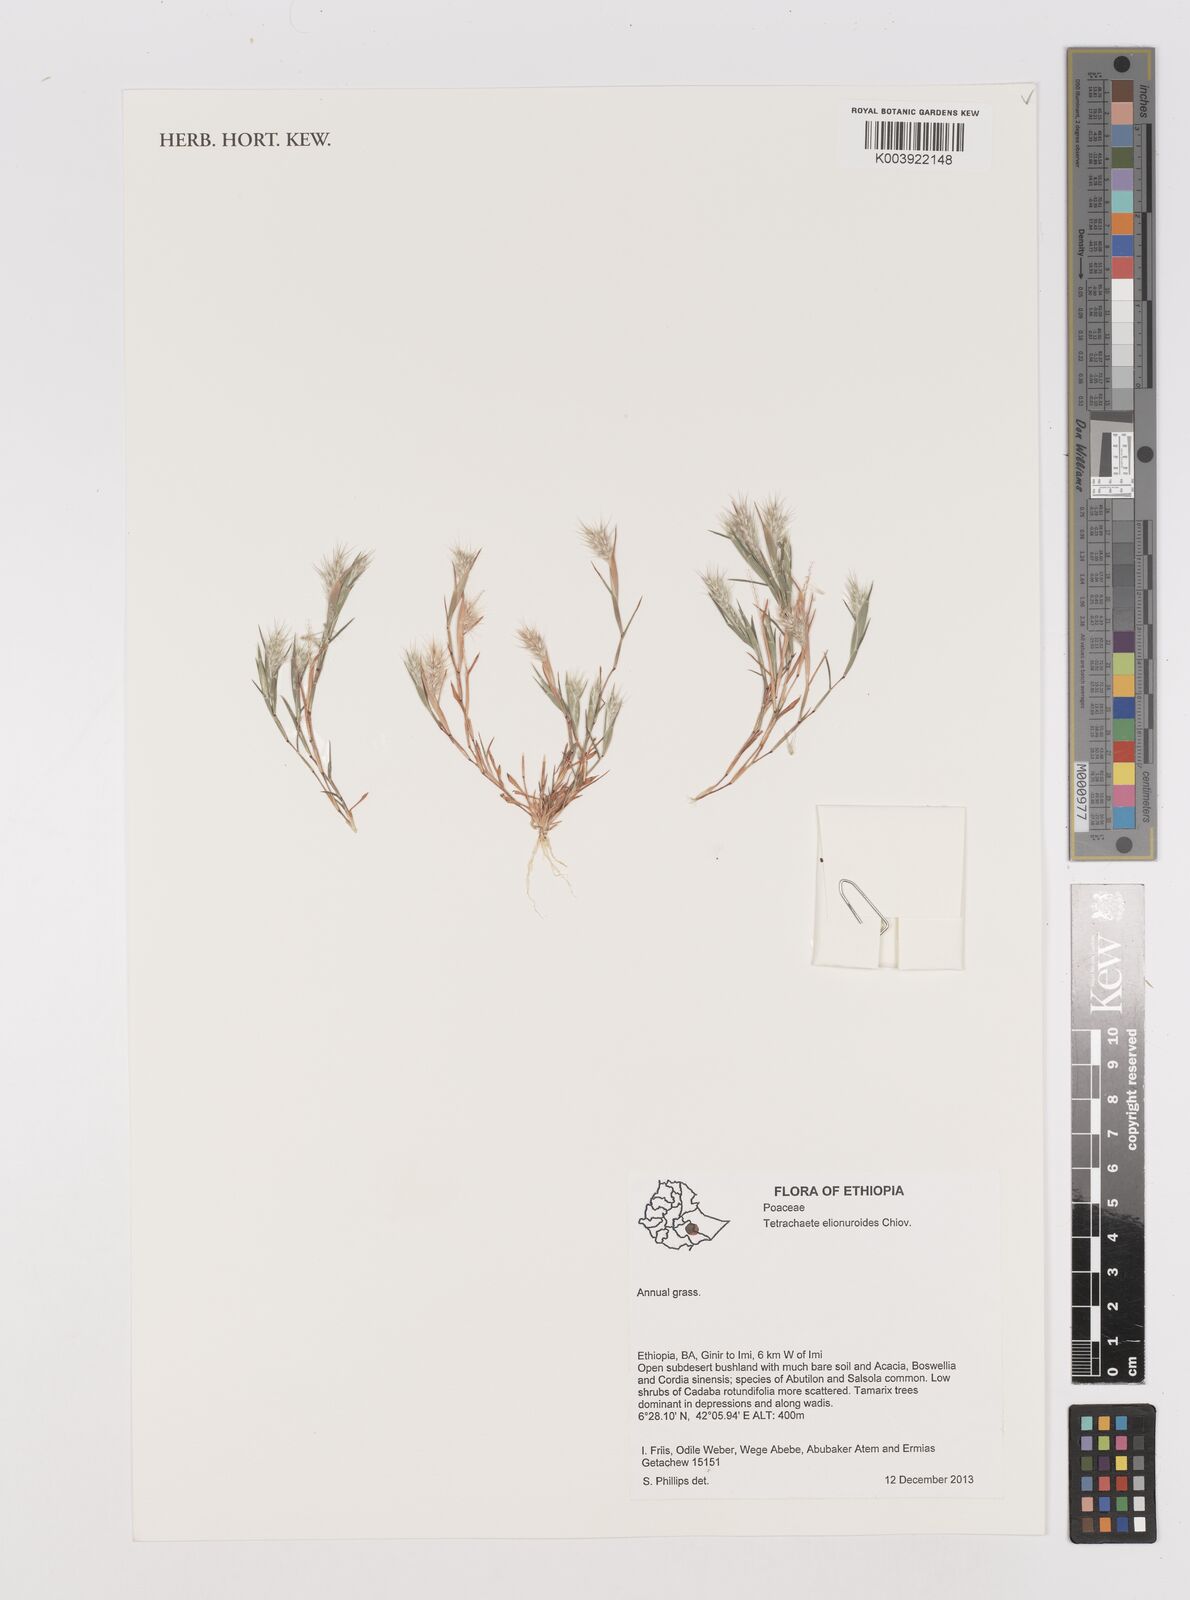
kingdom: Plantae
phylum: Tracheophyta
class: Liliopsida
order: Poales
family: Poaceae
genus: Tetrachaete
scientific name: Tetrachaete elionuroides
